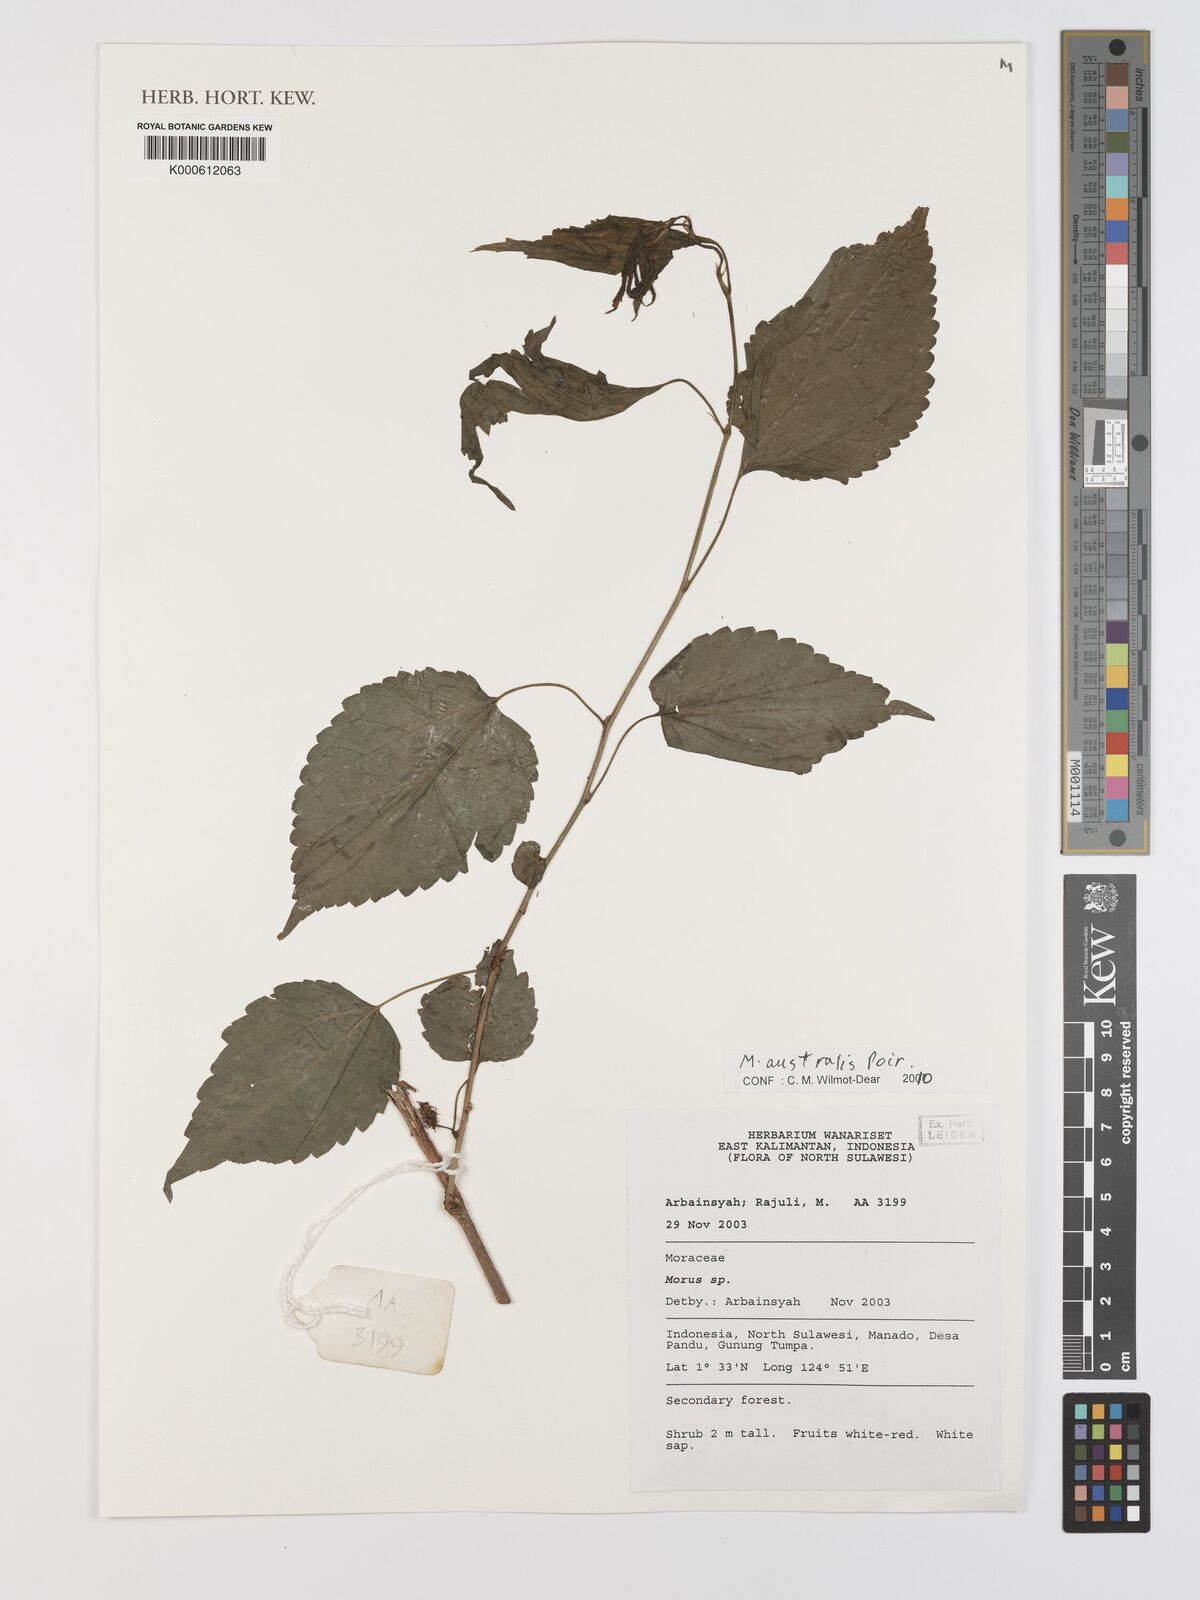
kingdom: Plantae
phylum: Tracheophyta
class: Magnoliopsida
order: Rosales
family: Moraceae
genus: Broussonetia
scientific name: Broussonetia papyrifera
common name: Paper mulberry
